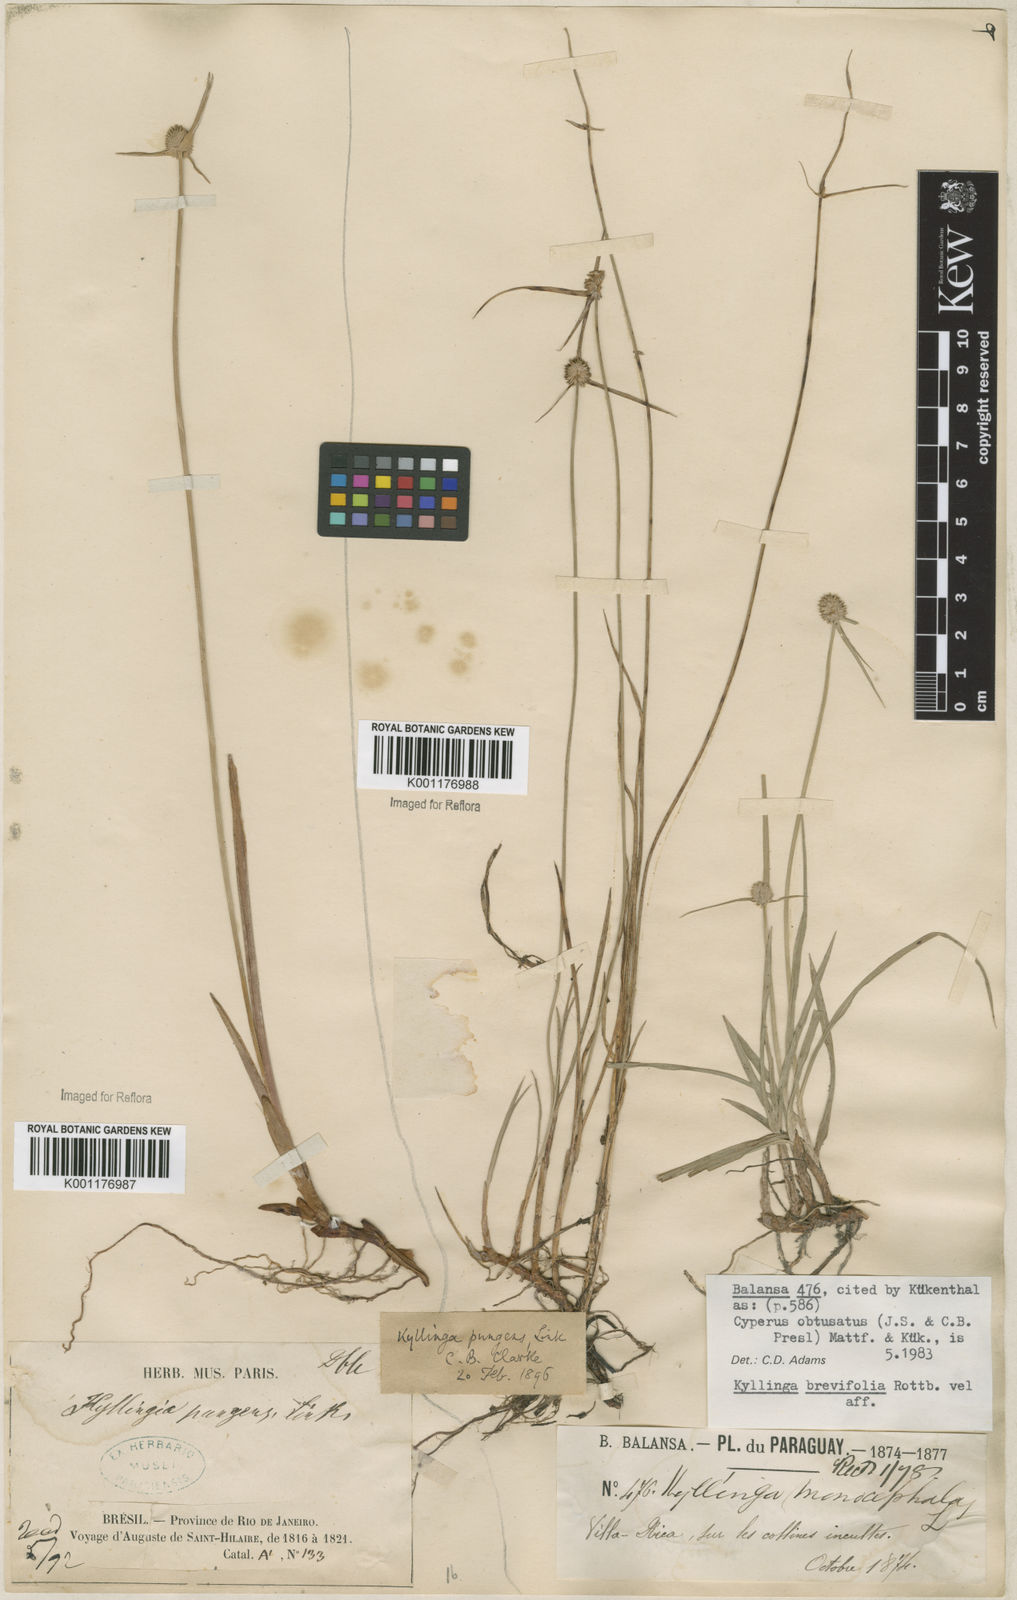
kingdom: Plantae
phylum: Tracheophyta
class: Liliopsida
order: Poales
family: Cyperaceae
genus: Cyperus
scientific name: Cyperus obtusatus
